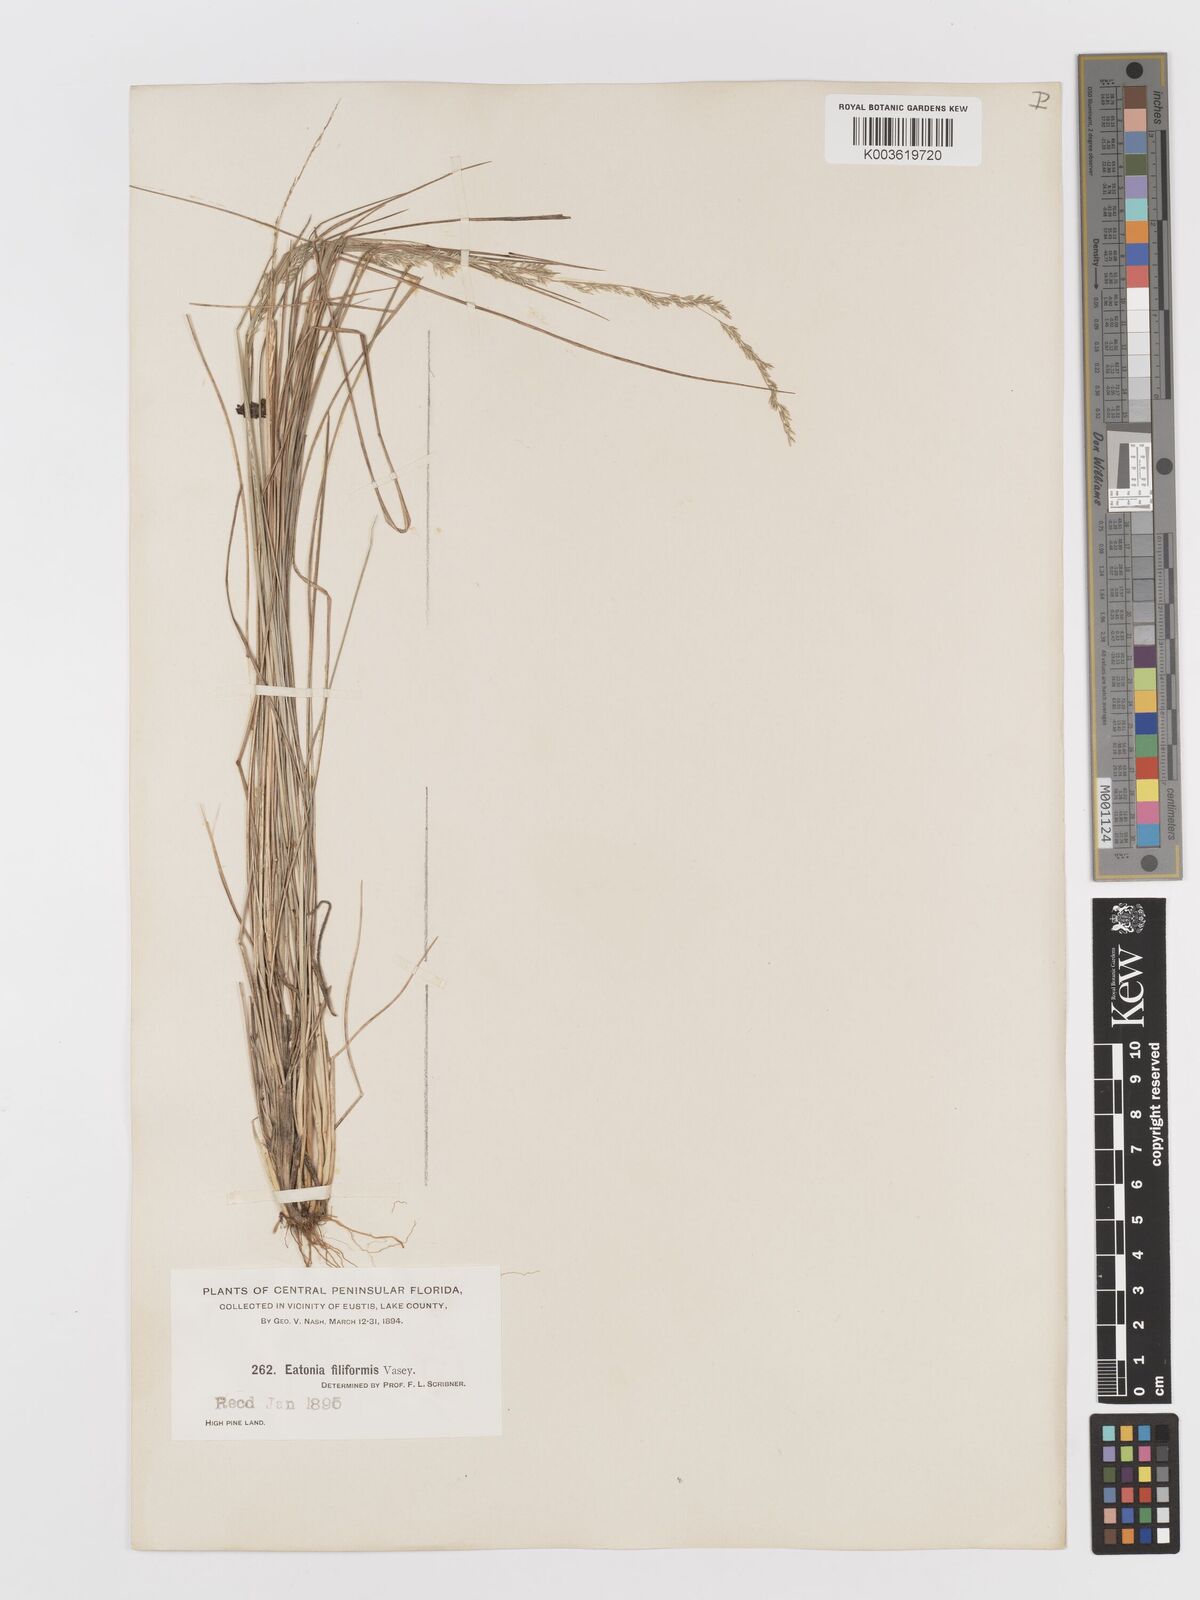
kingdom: Plantae
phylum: Tracheophyta
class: Liliopsida
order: Poales
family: Poaceae
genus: Sphenopholis
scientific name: Sphenopholis filiformis
